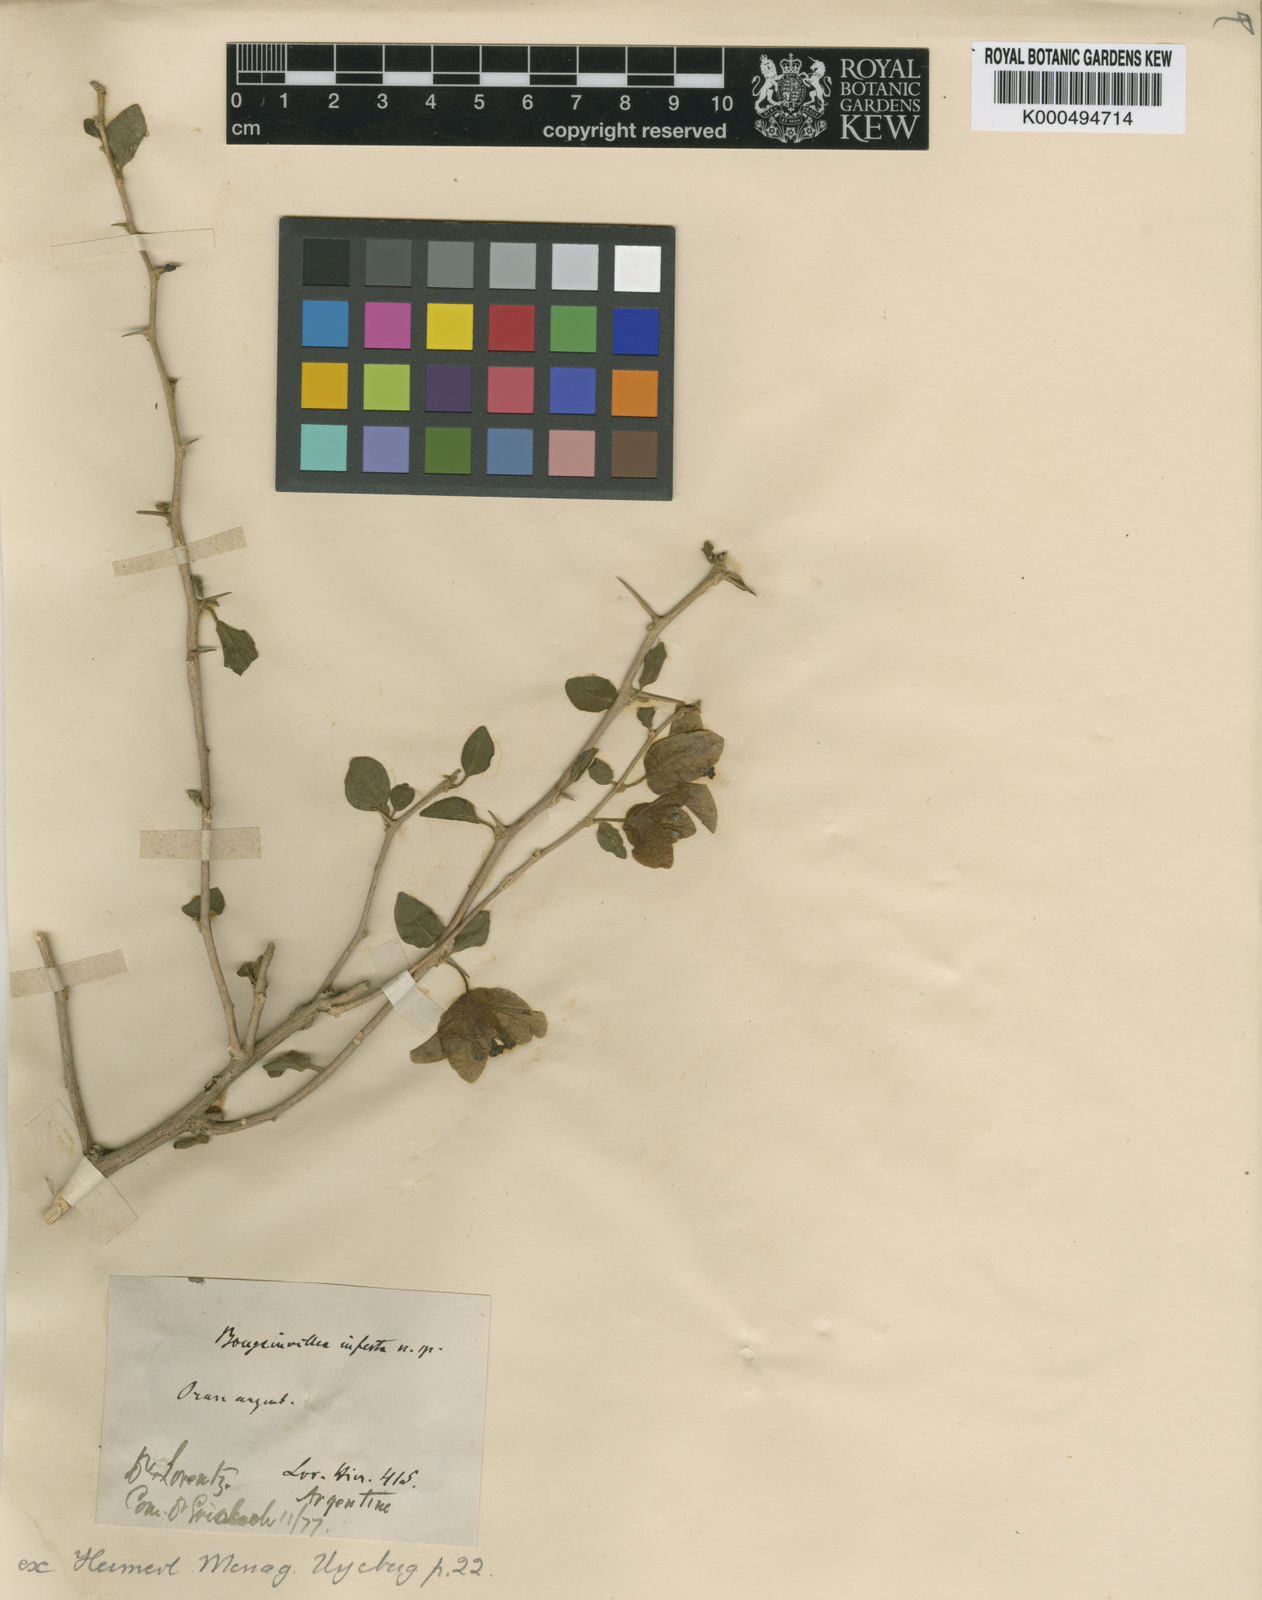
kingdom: Plantae
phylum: Tracheophyta
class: Magnoliopsida
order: Caryophyllales
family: Nyctaginaceae
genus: Bougainvillea
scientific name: Bougainvillea infesta
